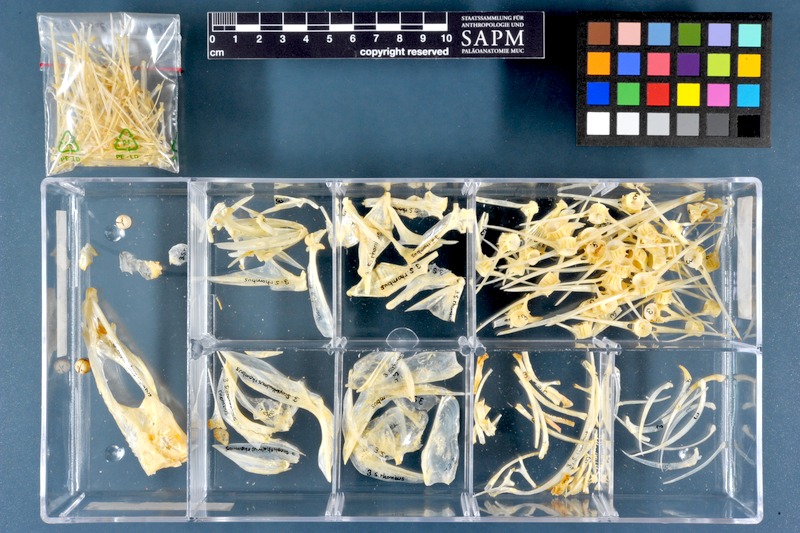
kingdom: Animalia
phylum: Chordata
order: Pleuronectiformes
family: Scophthalmidae
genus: Scophthalmus
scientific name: Scophthalmus rhombus
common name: Brill
